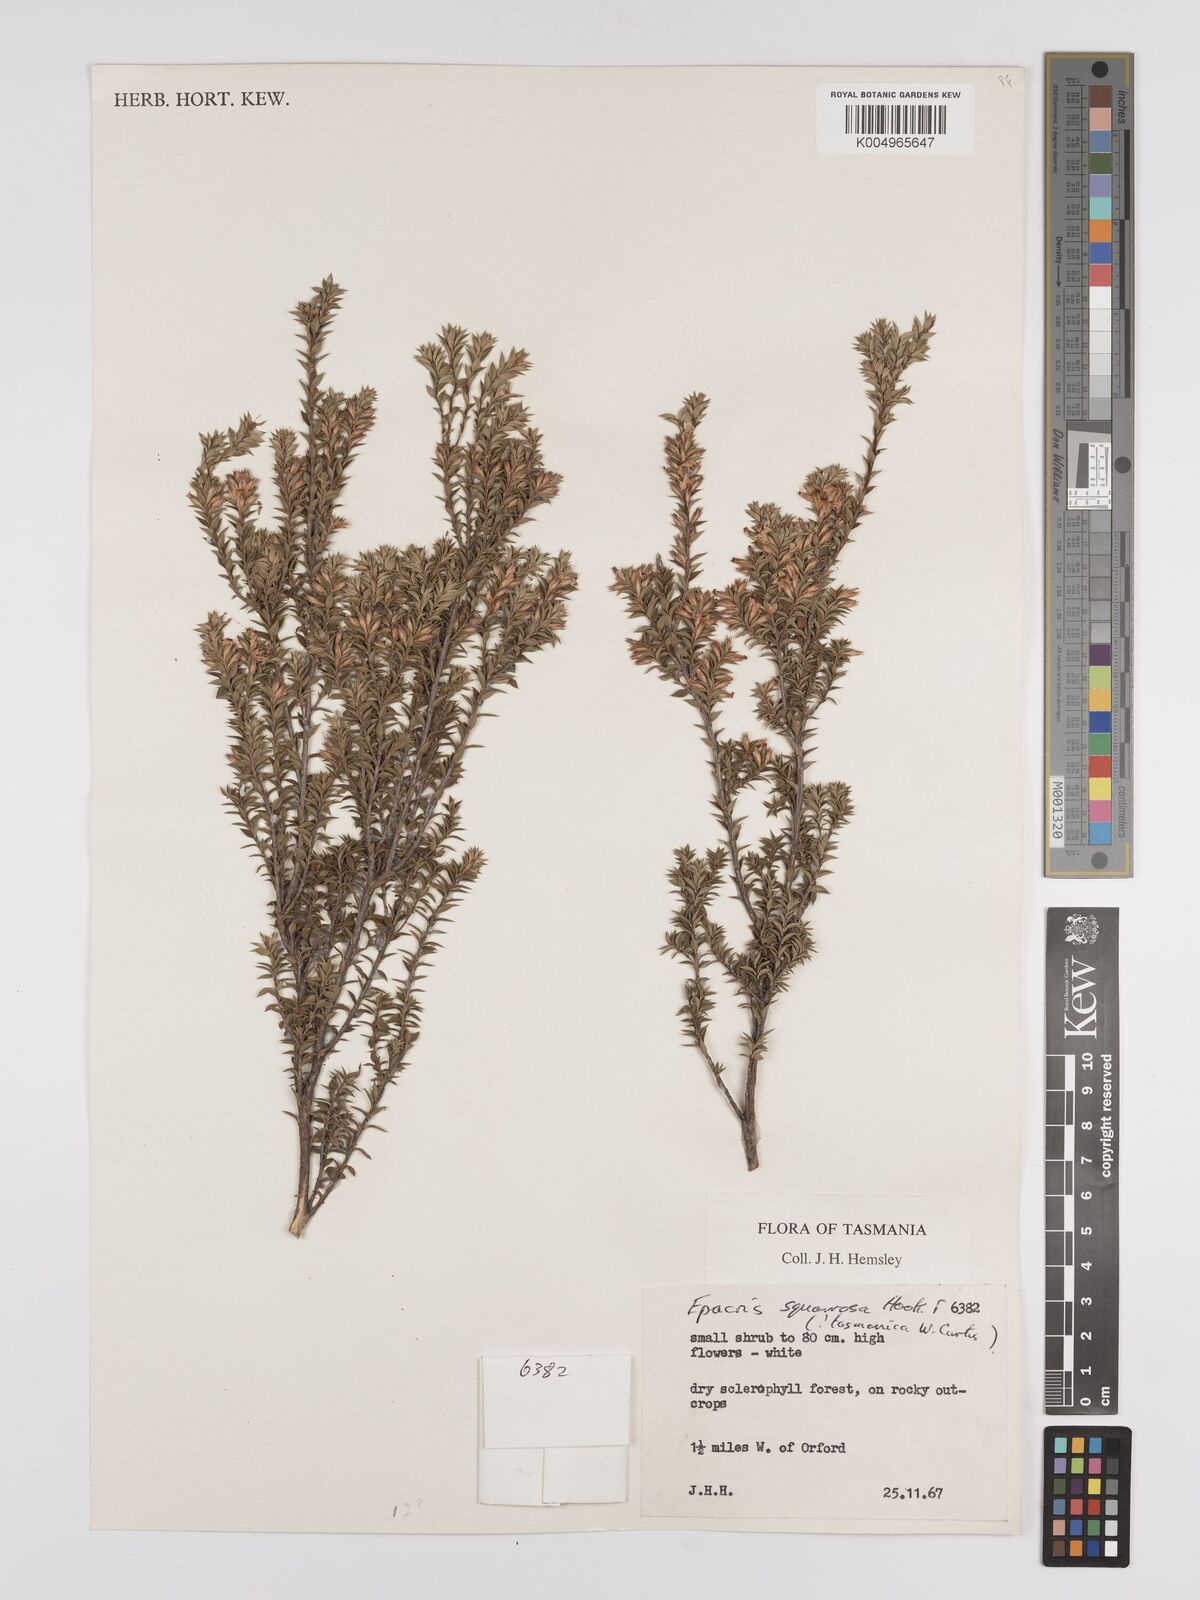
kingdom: Plantae
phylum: Tracheophyta
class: Magnoliopsida
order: Ericales
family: Ericaceae
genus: Epacris
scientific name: Epacris tasmanica
